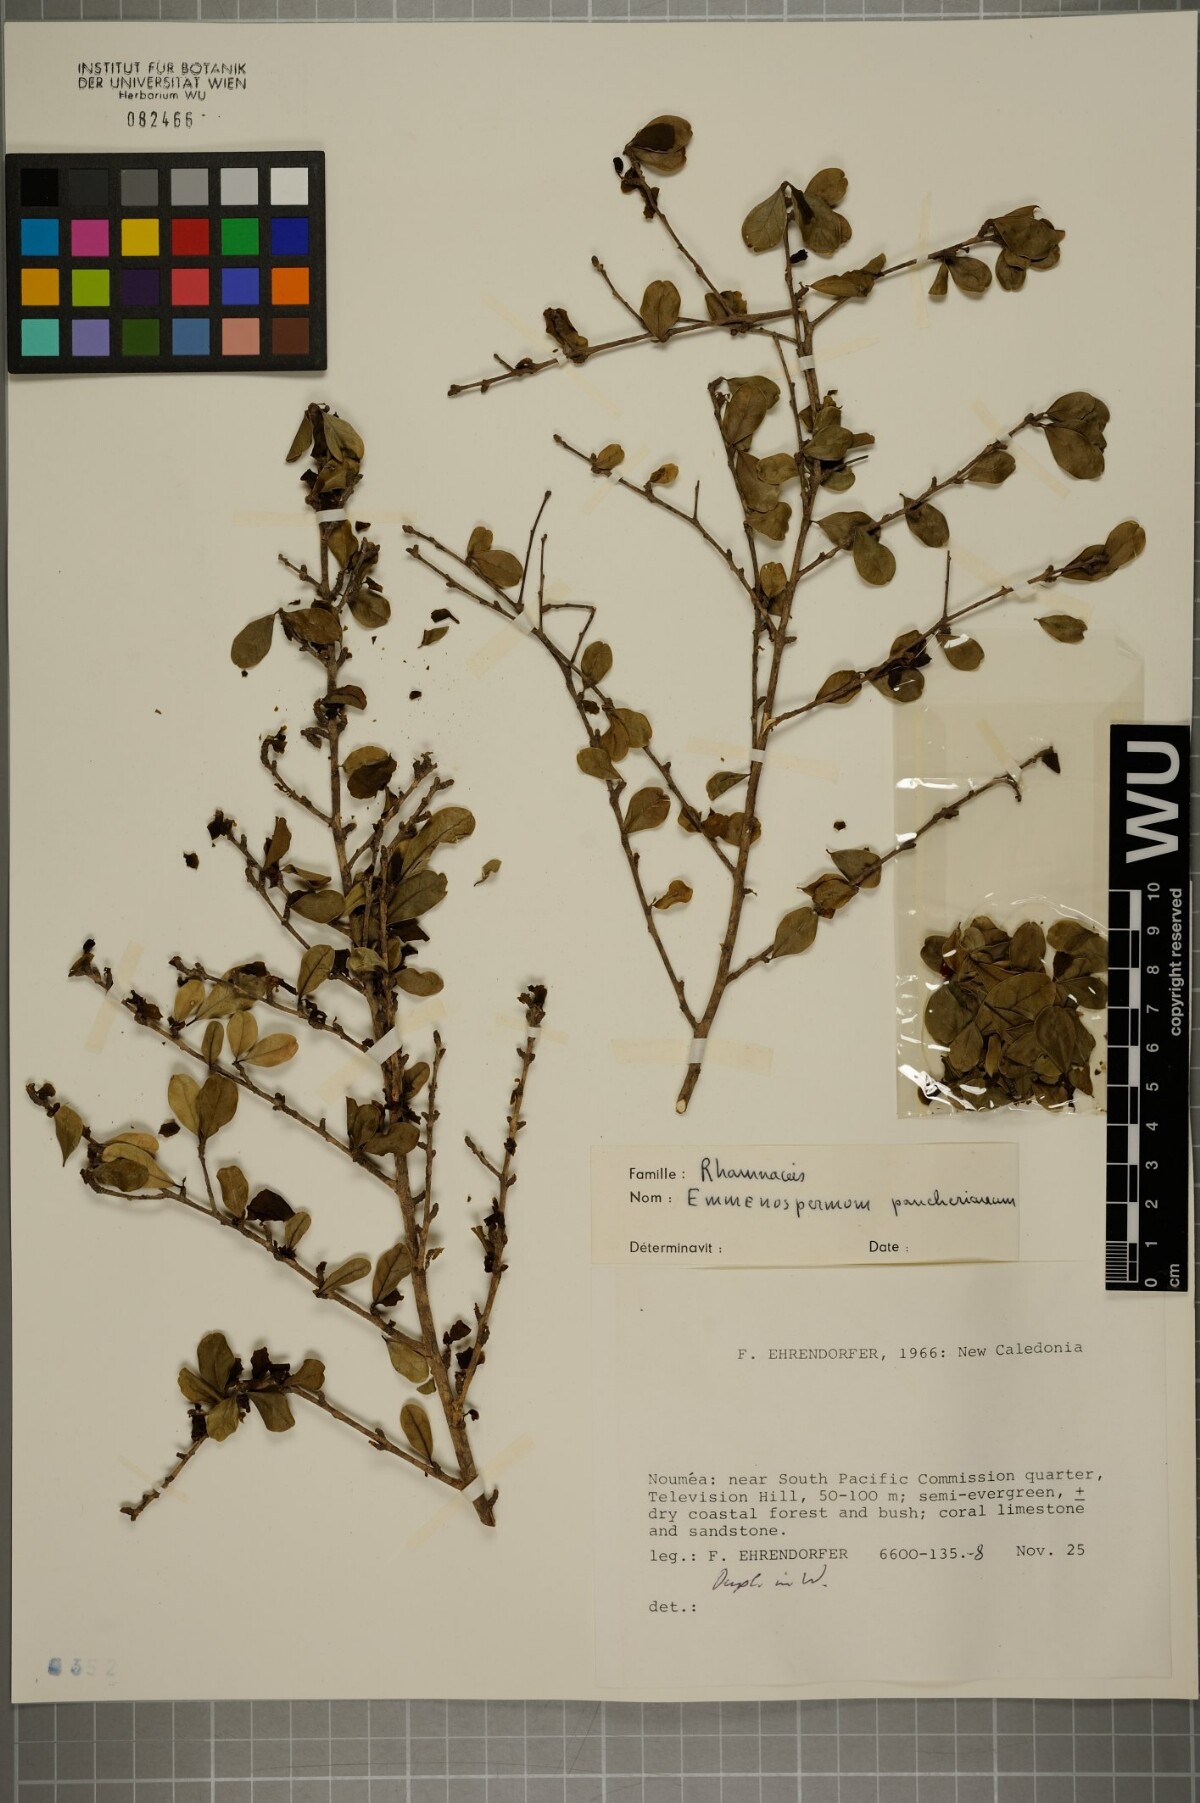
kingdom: Plantae
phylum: Tracheophyta
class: Magnoliopsida
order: Rosales
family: Rhamnaceae
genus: Emmenosperma
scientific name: Emmenosperma pancherianum
